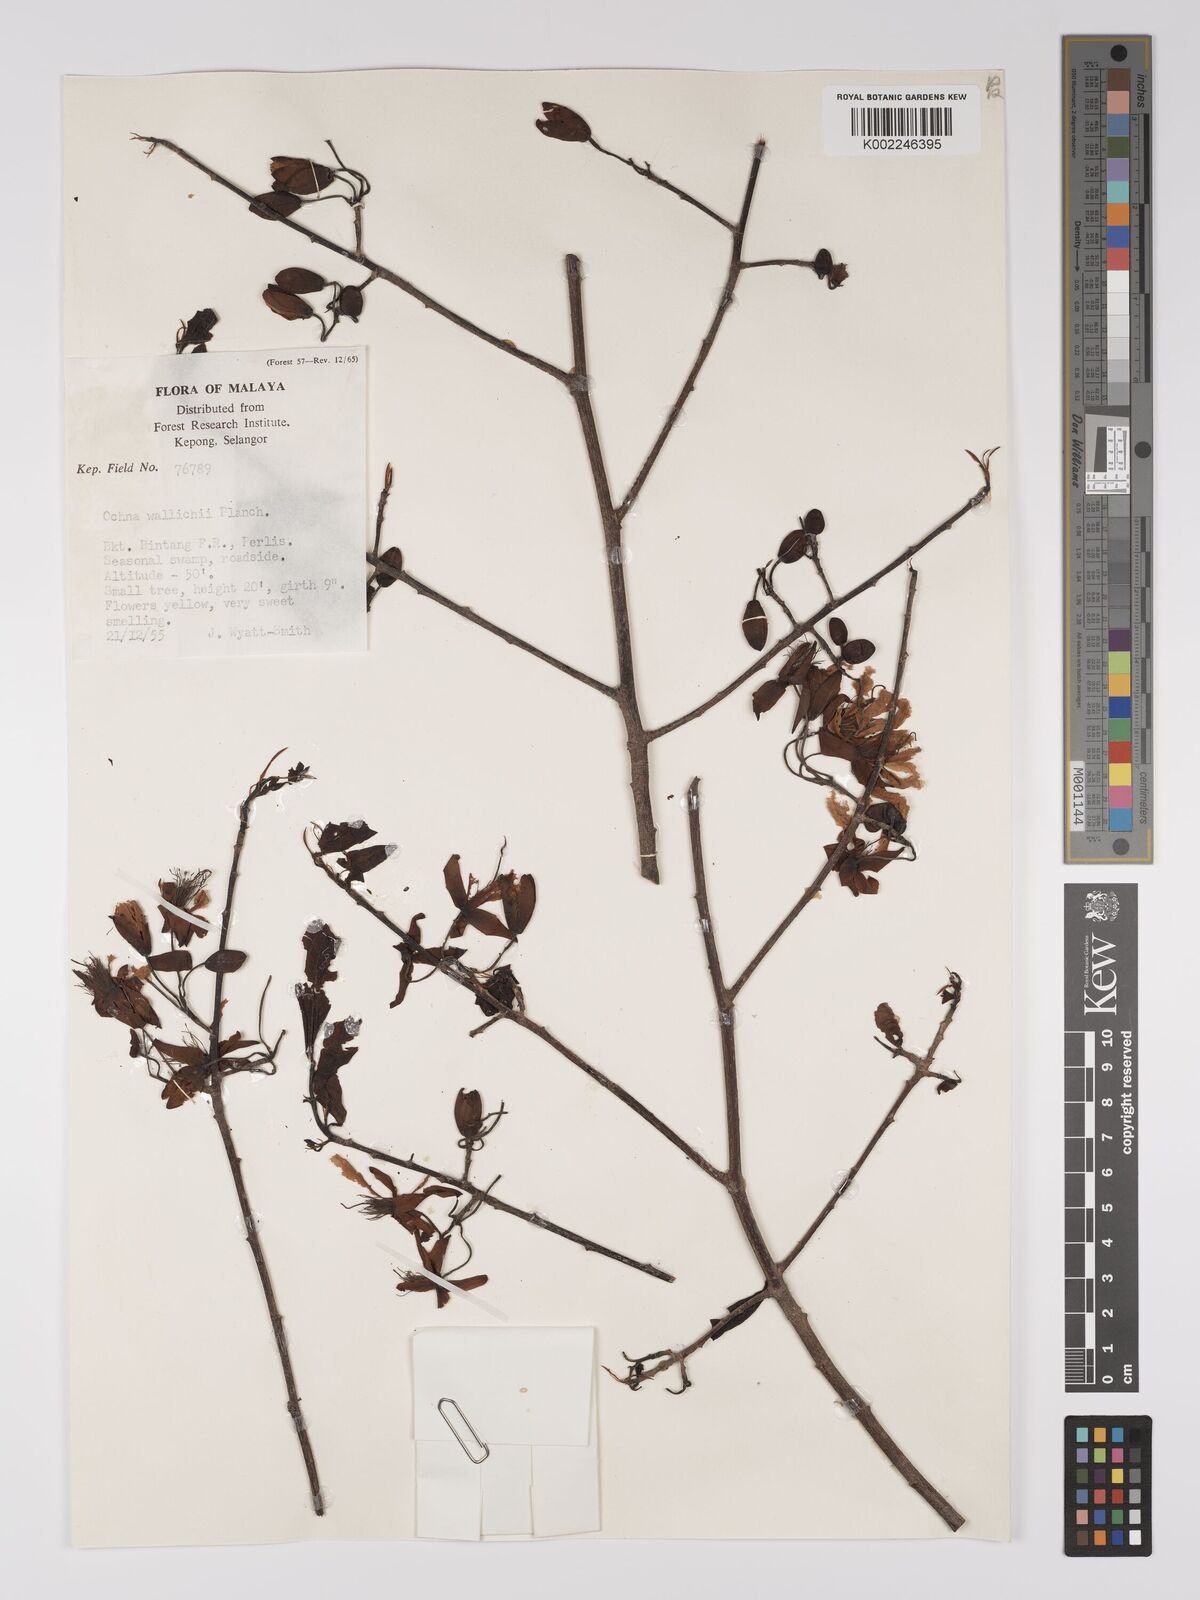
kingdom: Plantae
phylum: Tracheophyta
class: Magnoliopsida
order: Malpighiales
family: Ochnaceae
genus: Ochna
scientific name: Ochna integerrima
